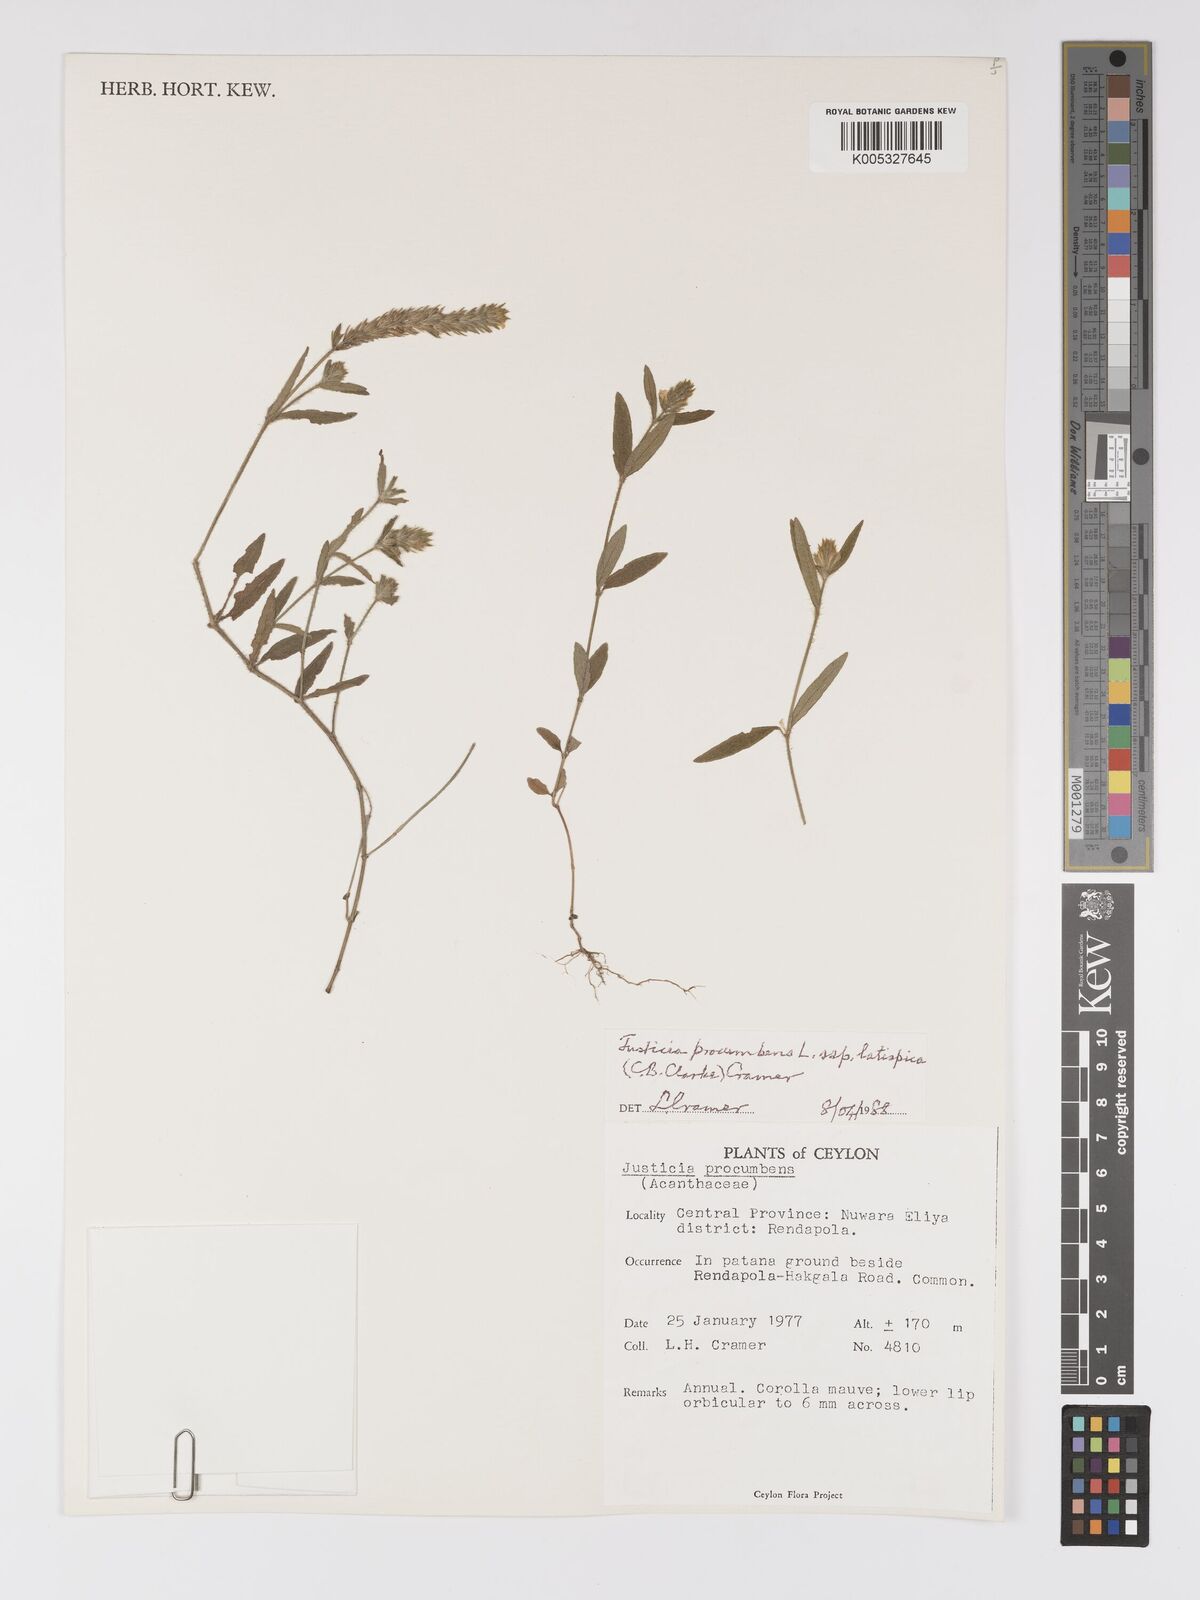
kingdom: Plantae
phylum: Tracheophyta
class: Magnoliopsida
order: Lamiales
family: Acanthaceae
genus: Rostellularia
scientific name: Rostellularia latispica
